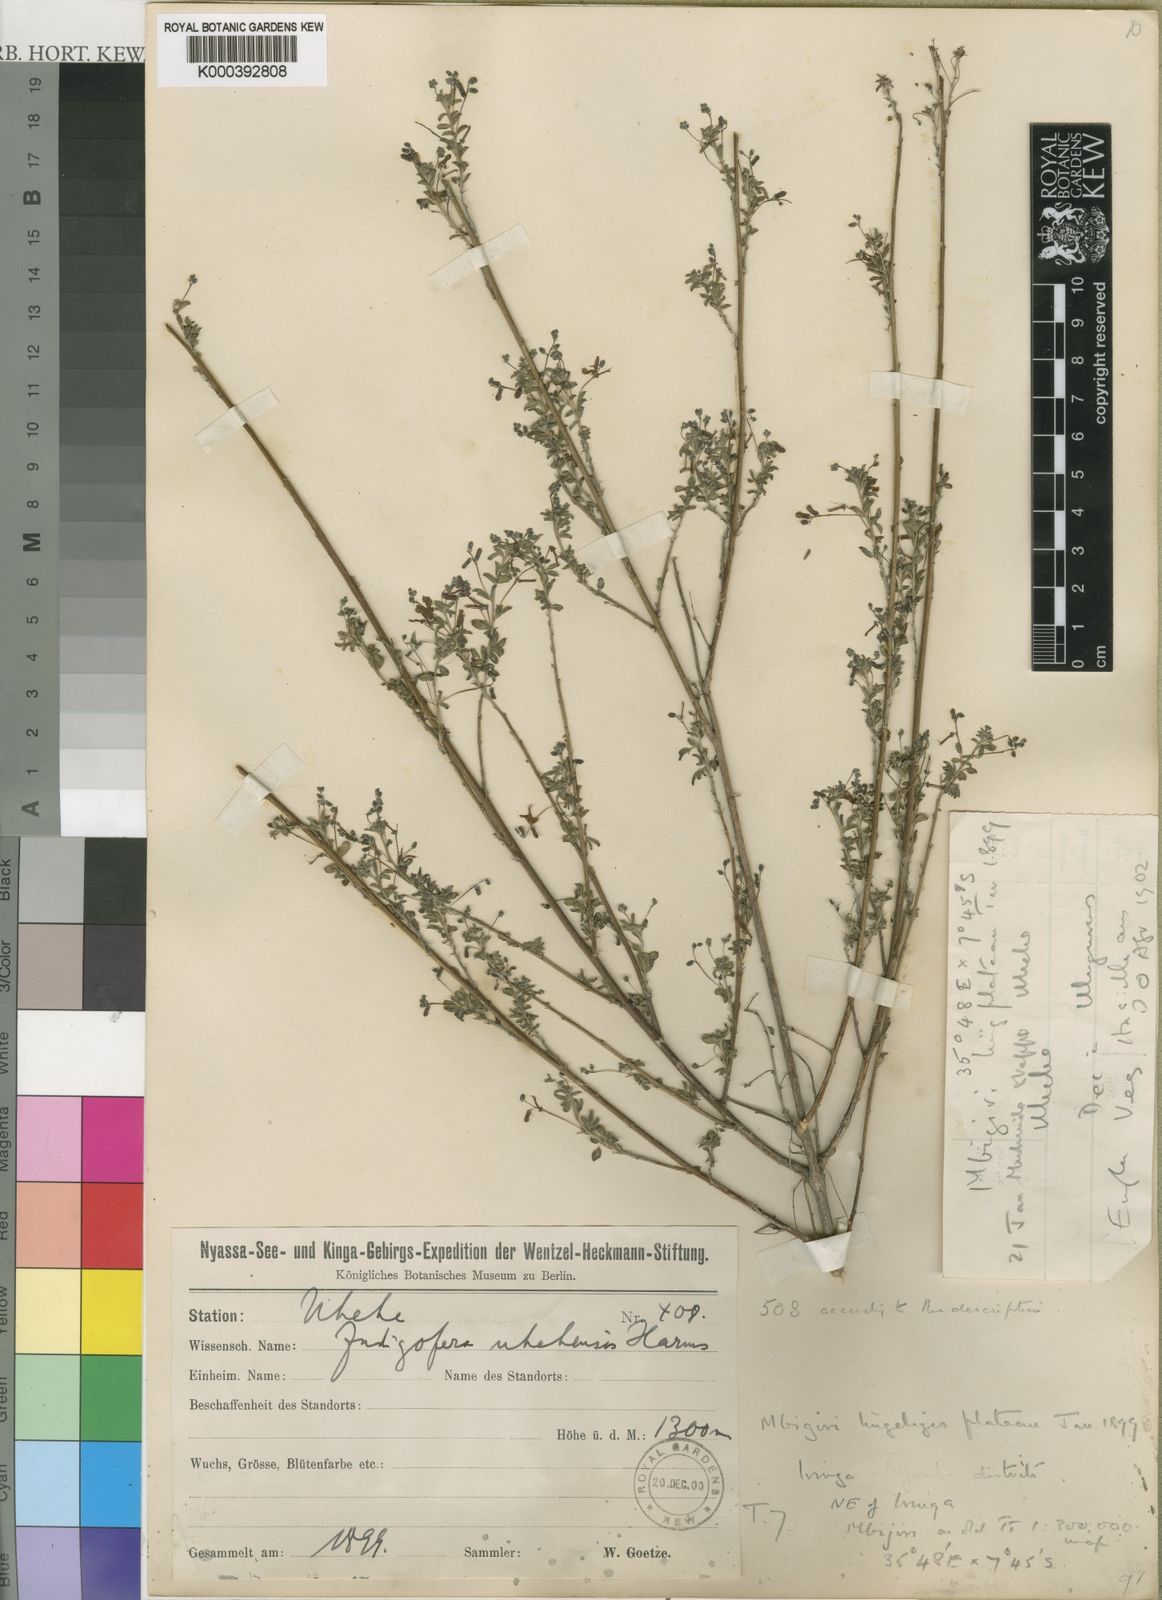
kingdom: Plantae
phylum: Tracheophyta
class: Magnoliopsida
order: Fabales
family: Fabaceae
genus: Indigofera
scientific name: Indigofera vohemarensis
